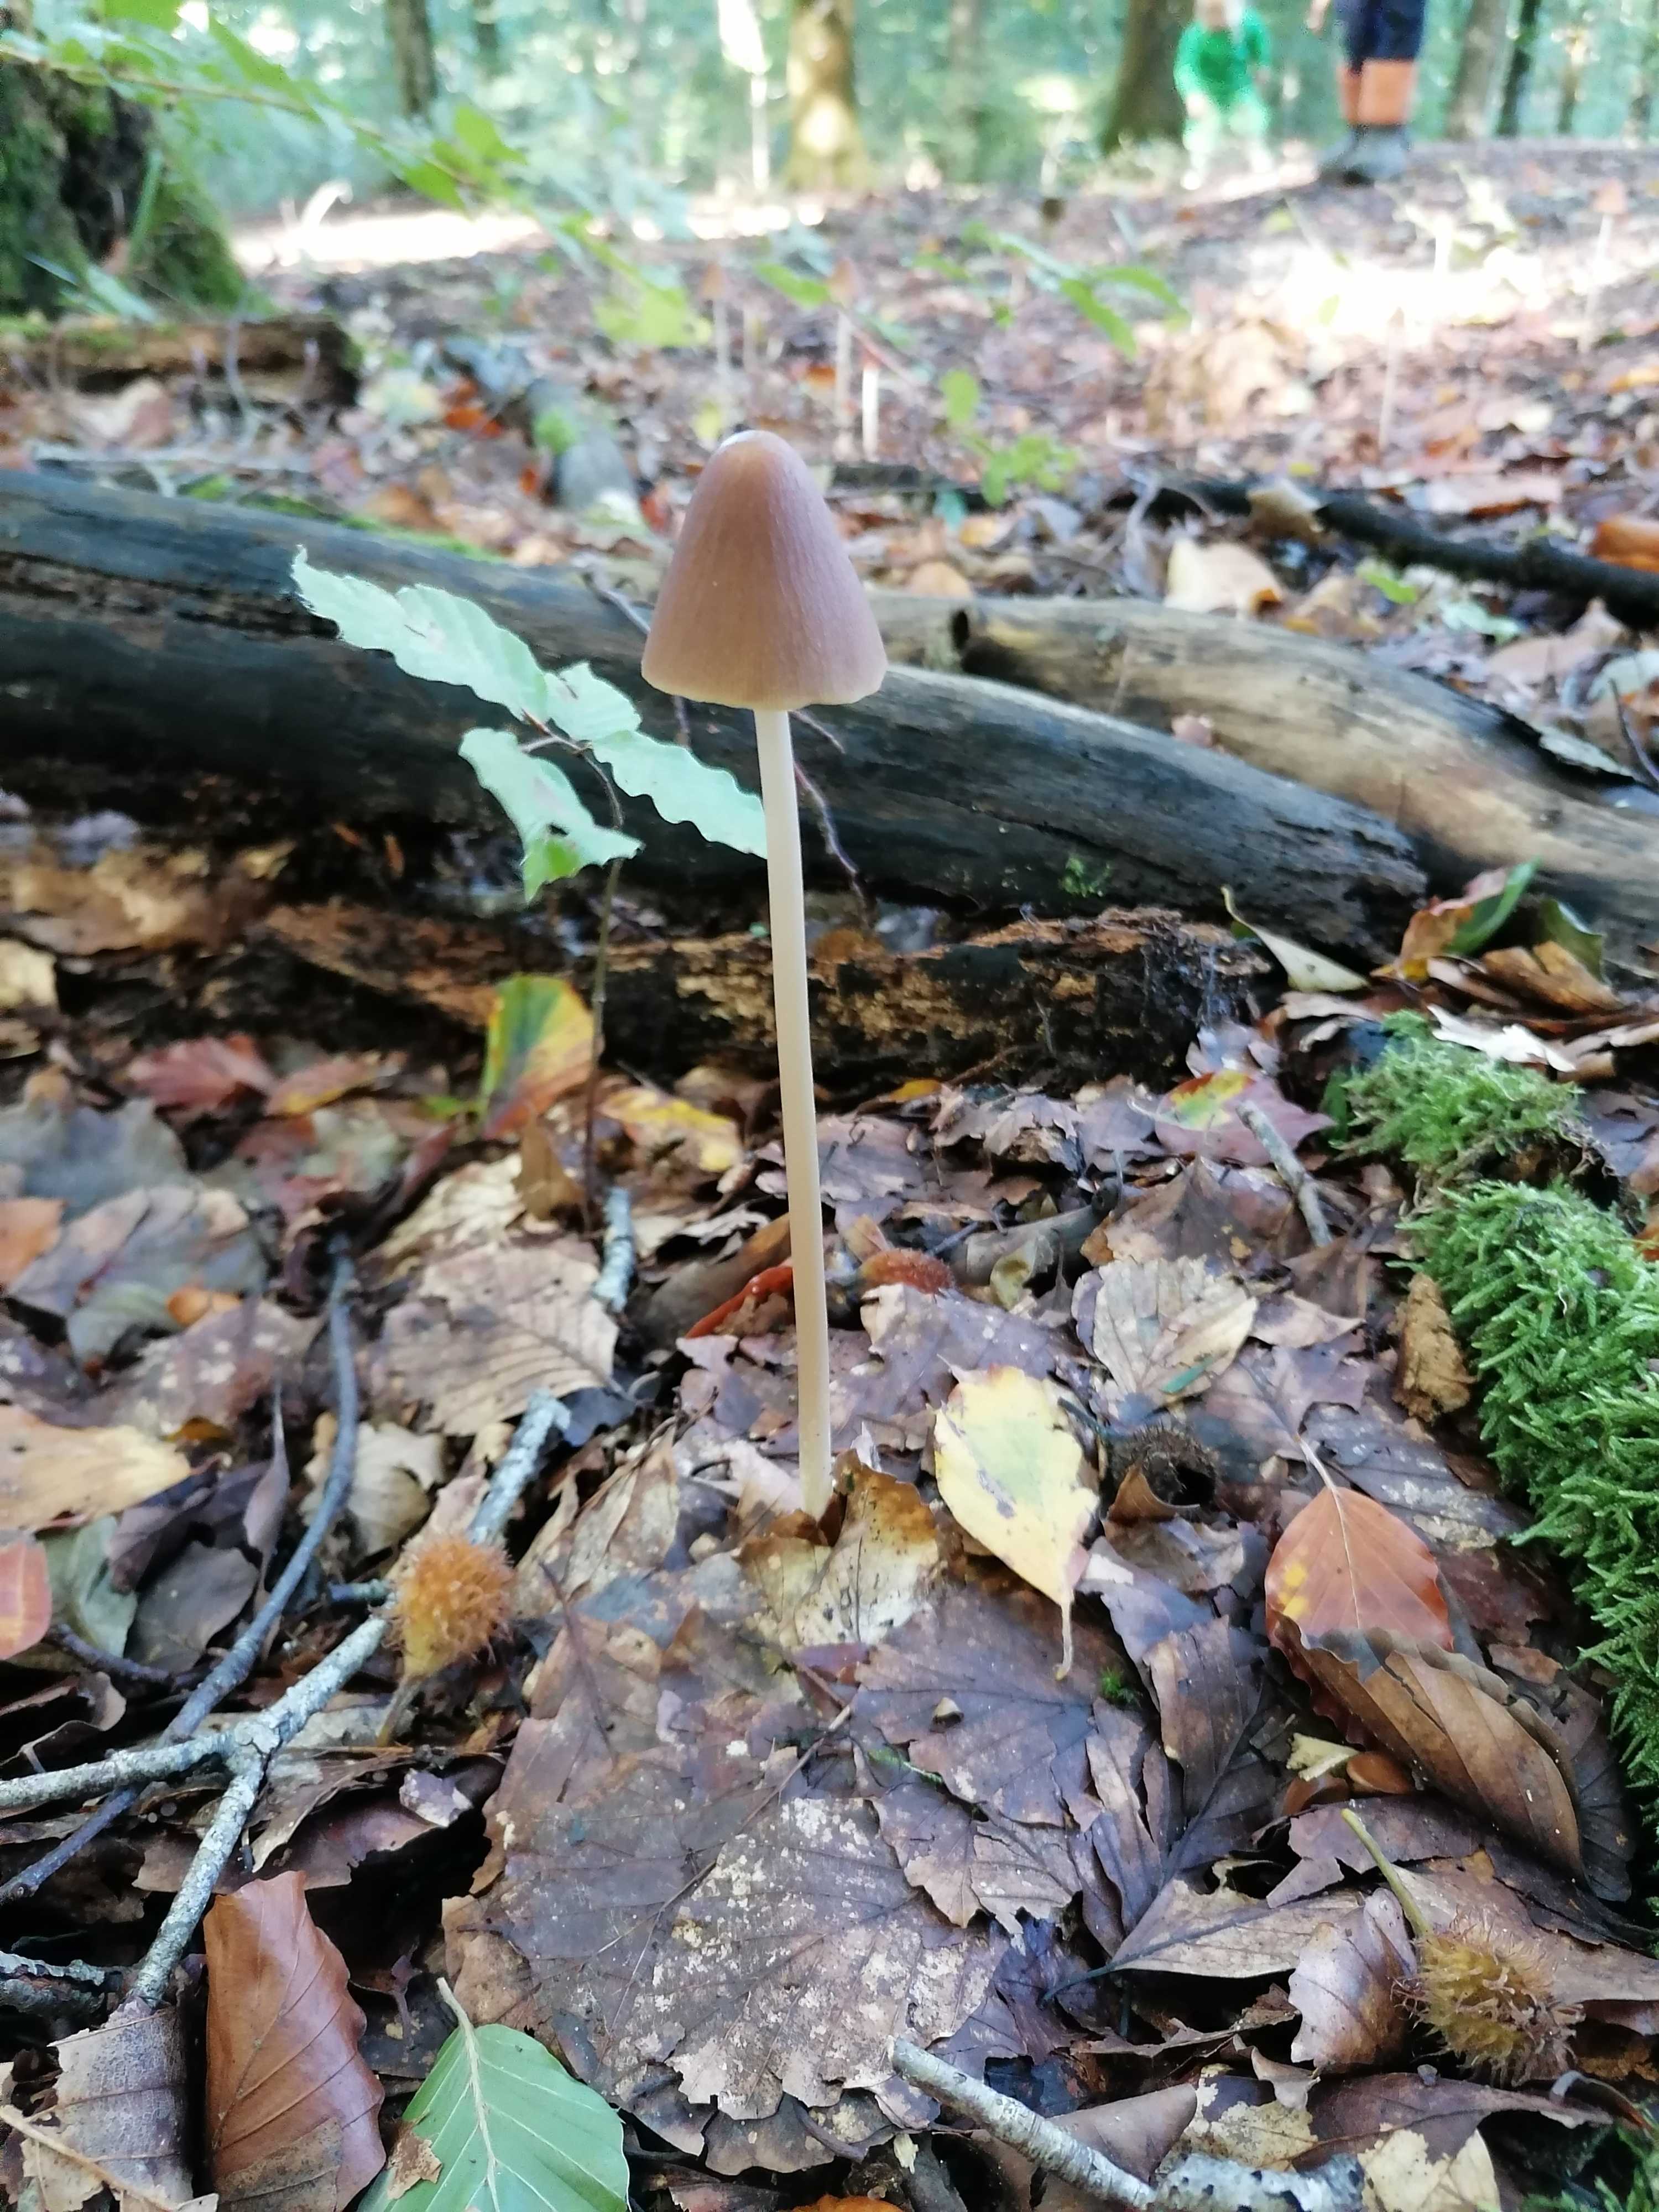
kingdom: Fungi
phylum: Basidiomycota
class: Agaricomycetes
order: Agaricales
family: Psathyrellaceae
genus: Parasola
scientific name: Parasola conopilea
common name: kegle-hjulhat
